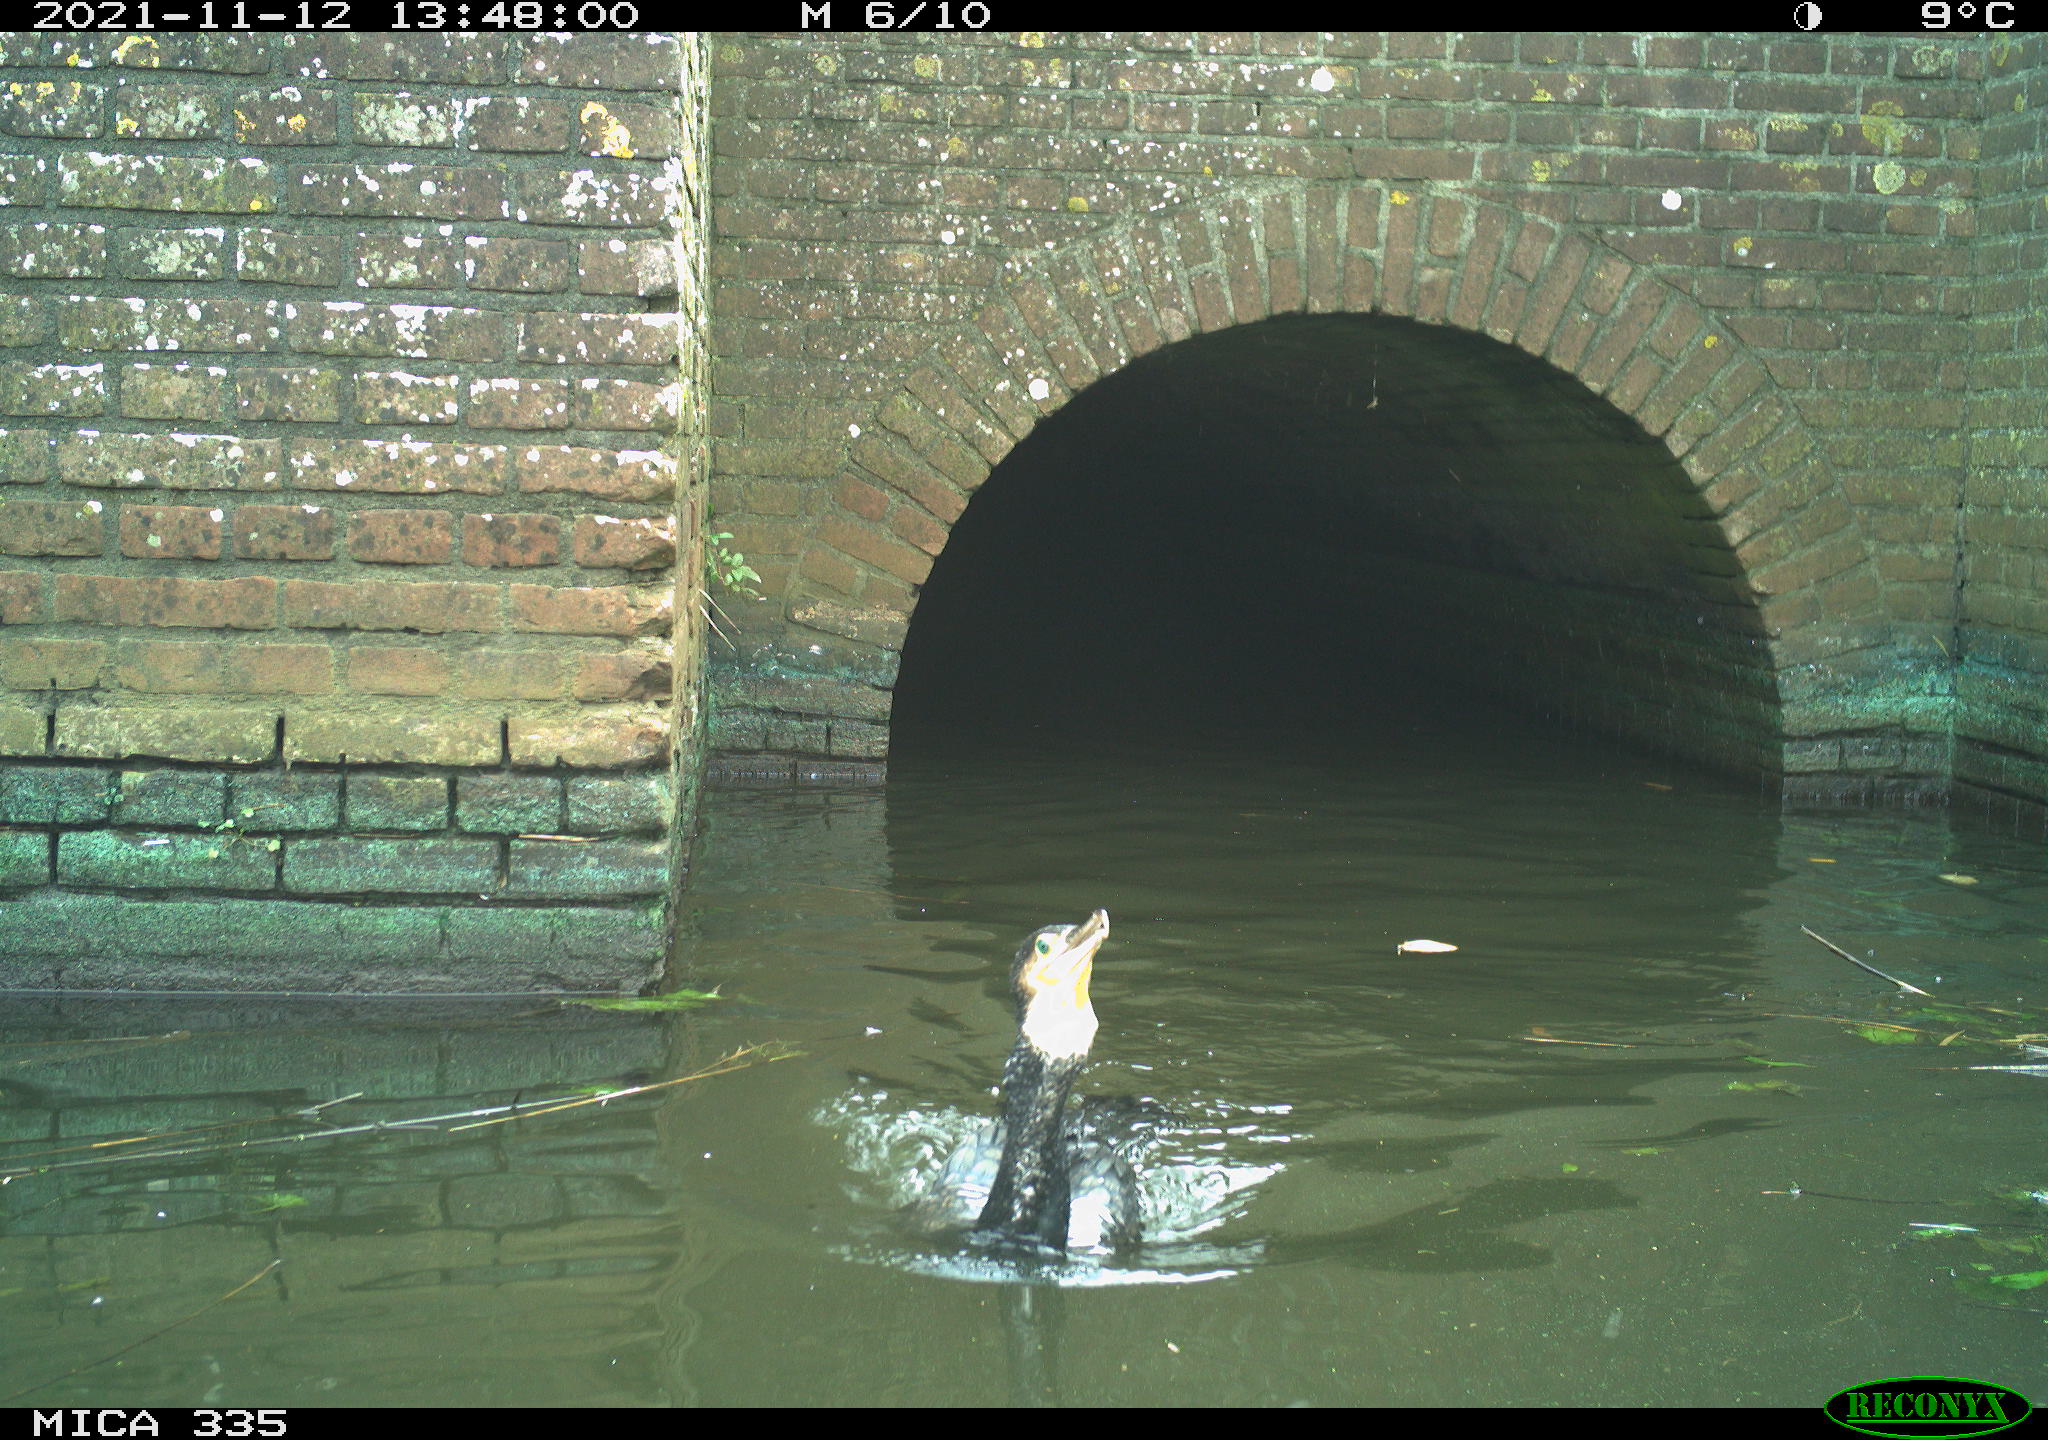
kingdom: Animalia
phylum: Chordata
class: Aves
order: Suliformes
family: Phalacrocoracidae
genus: Phalacrocorax
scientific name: Phalacrocorax carbo
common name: Great cormorant
